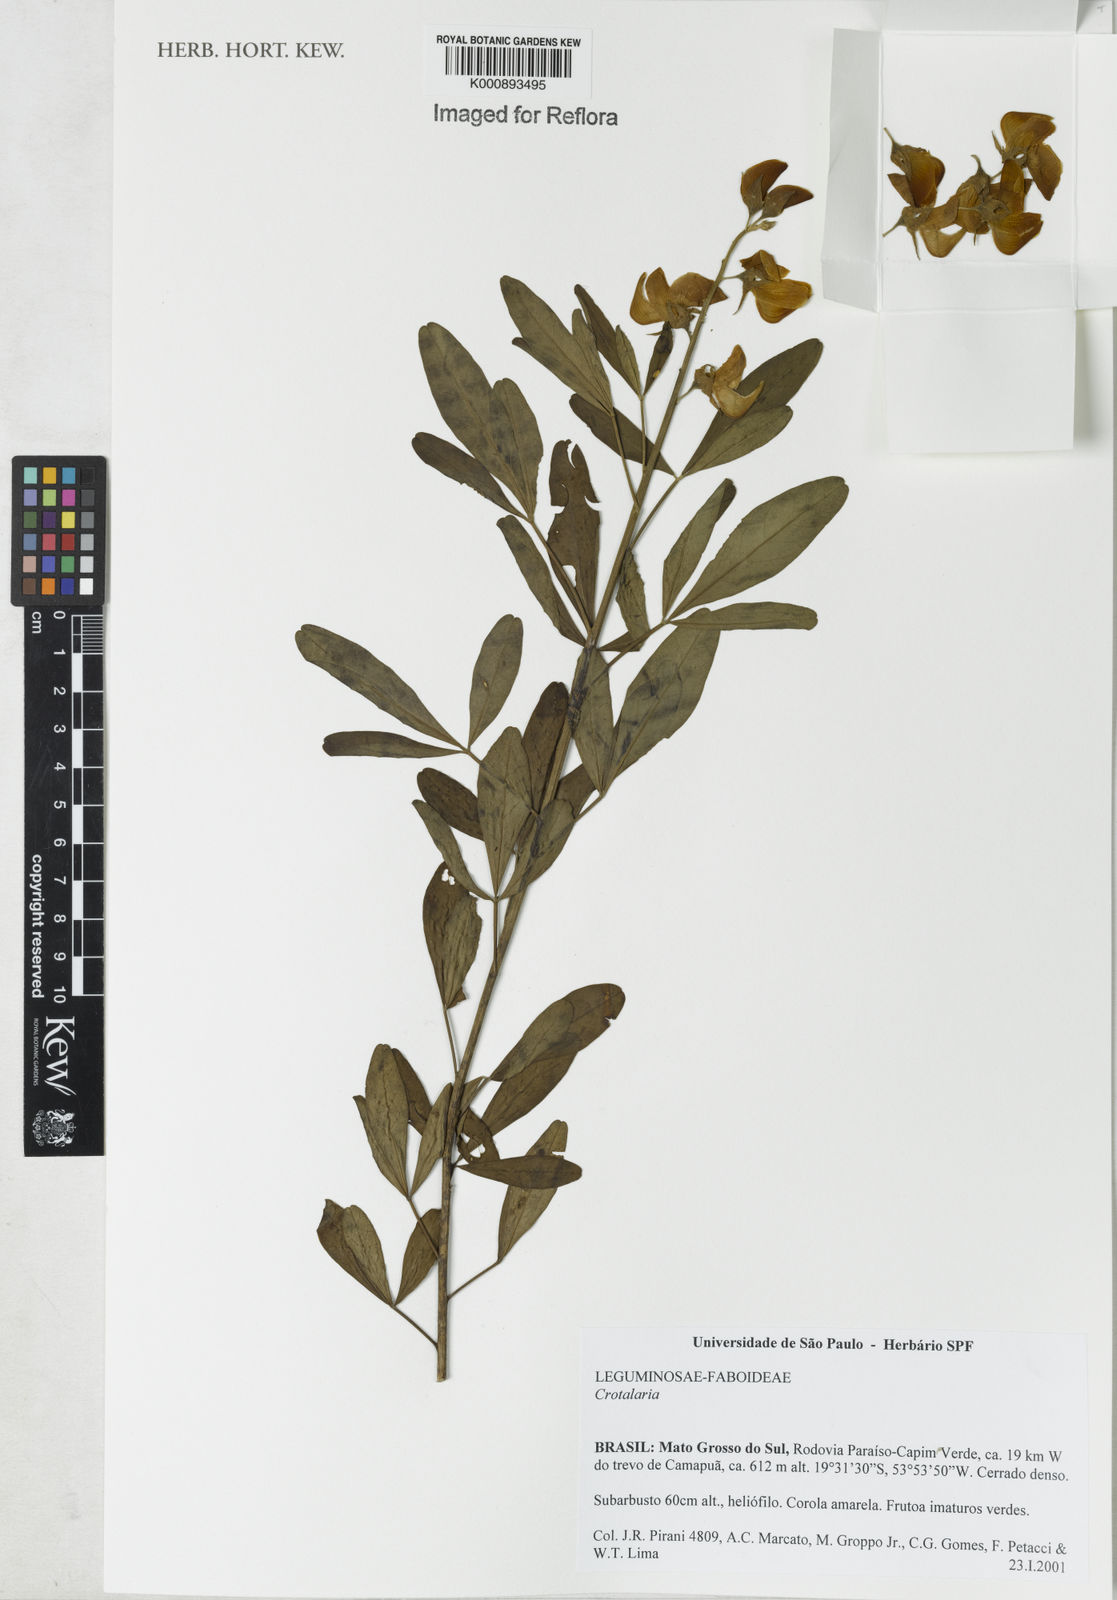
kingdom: Plantae
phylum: Tracheophyta
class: Magnoliopsida
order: Fabales
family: Fabaceae
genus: Crotalaria
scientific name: Crotalaria maypurensis
